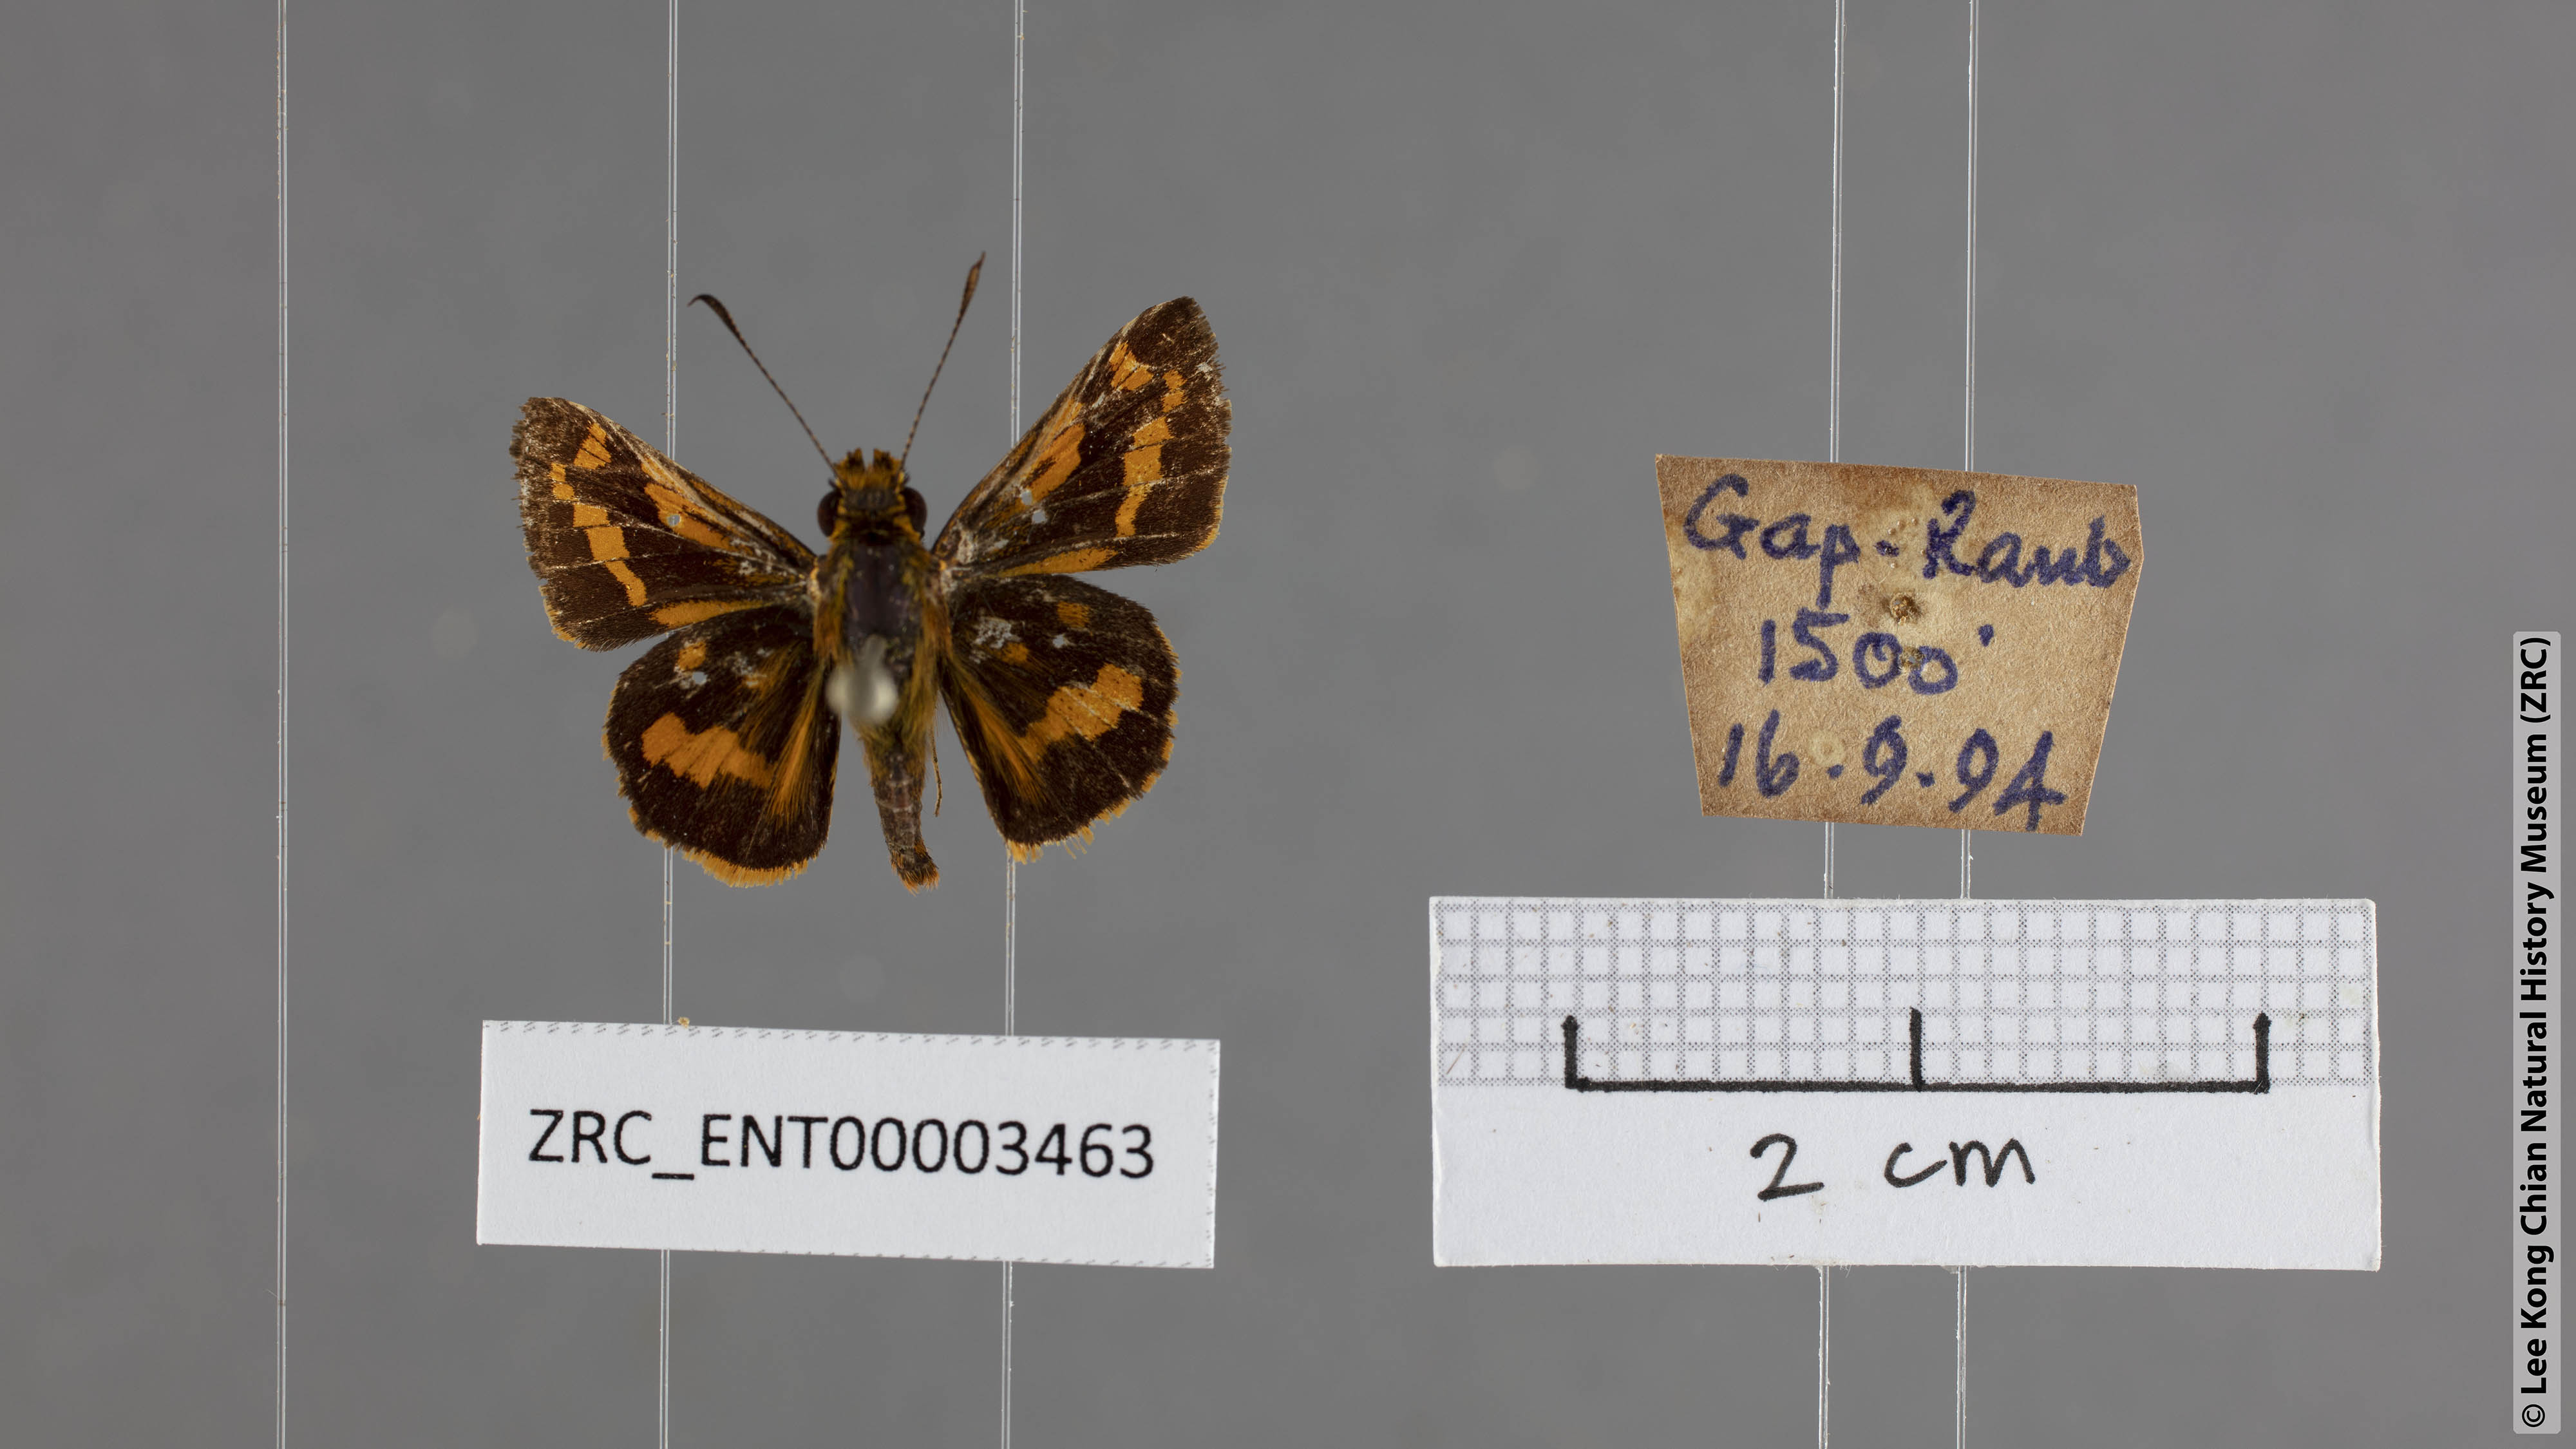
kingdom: Animalia
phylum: Arthropoda
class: Insecta
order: Lepidoptera
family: Hesperiidae
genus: Potanthus
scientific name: Potanthus ganda
